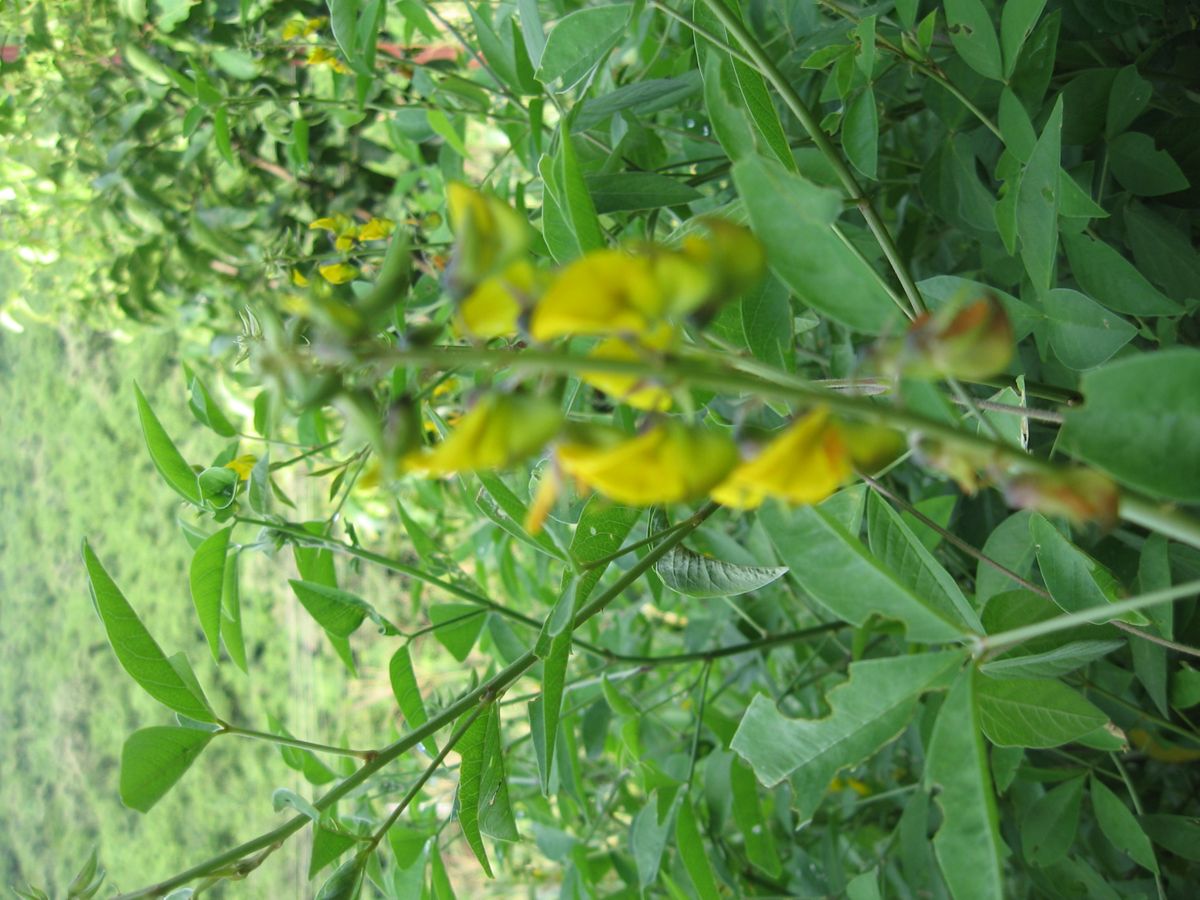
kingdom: Plantae
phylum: Tracheophyta
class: Magnoliopsida
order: Fabales
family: Fabaceae
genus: Crotalaria
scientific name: Crotalaria micans
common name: Caracas rattlebox
